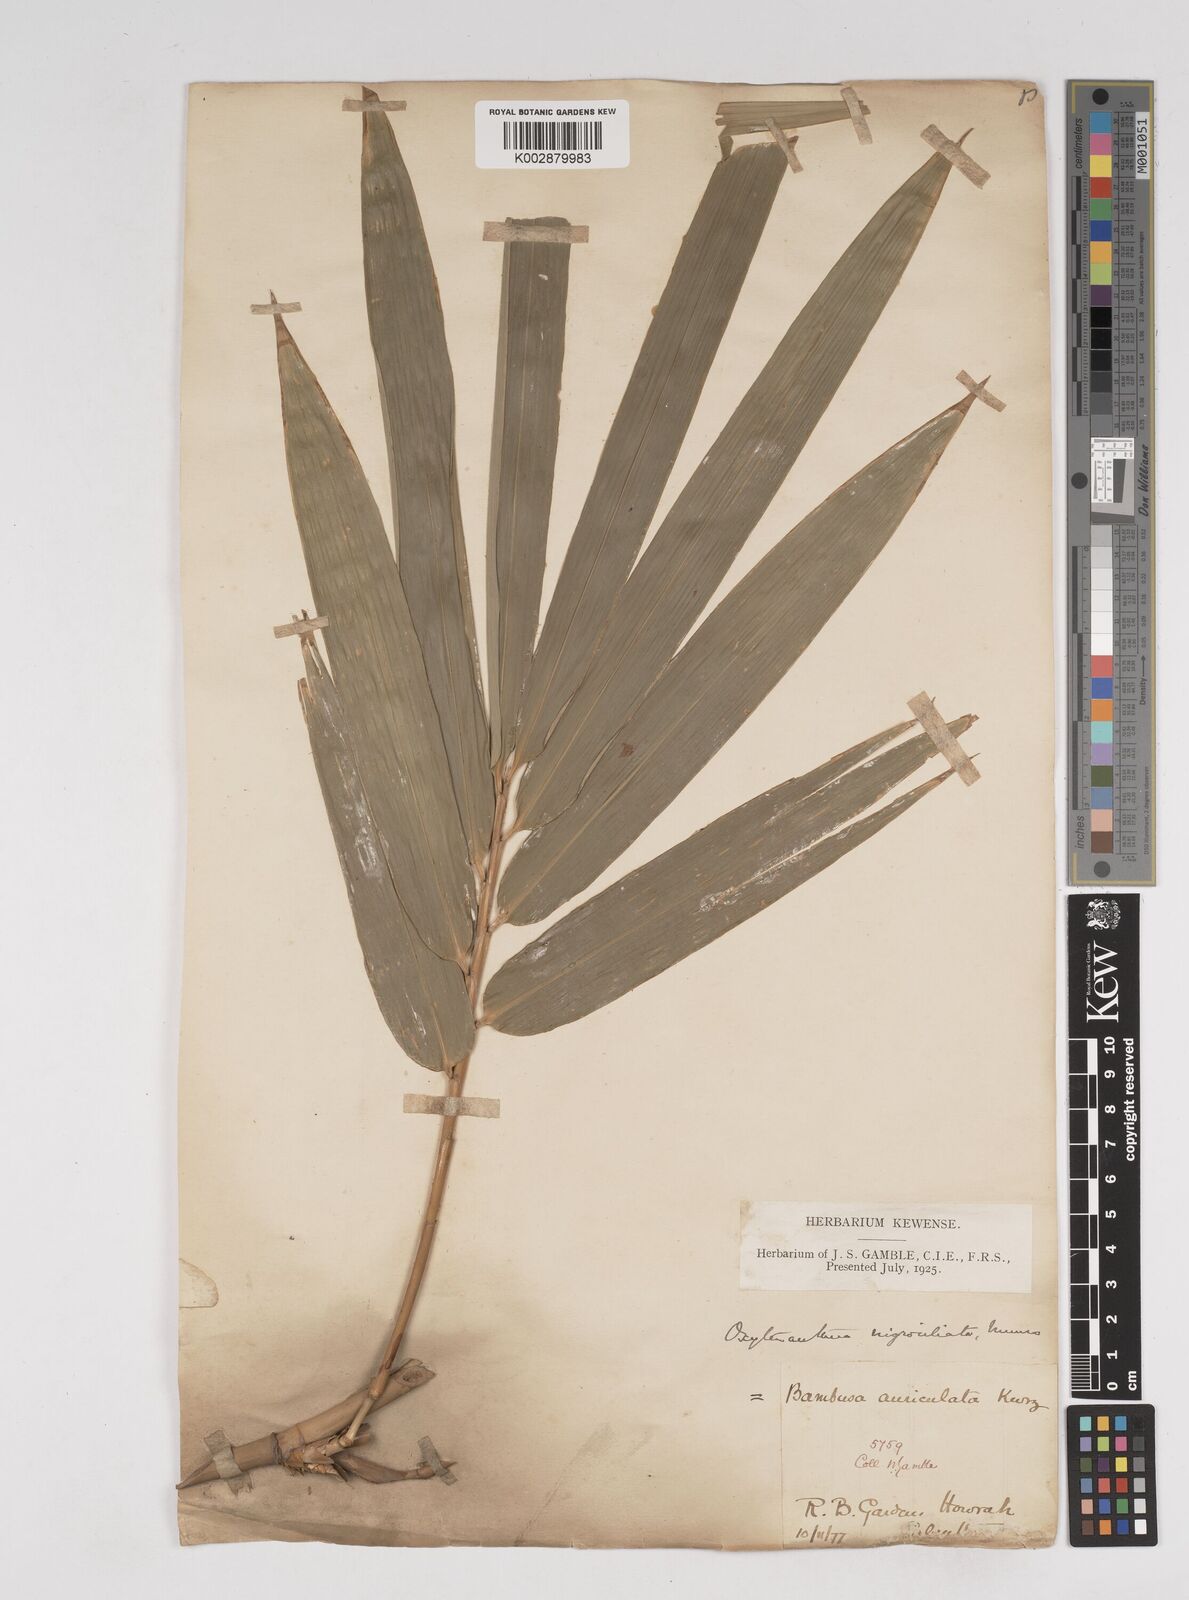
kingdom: Plantae
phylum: Tracheophyta
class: Liliopsida
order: Poales
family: Poaceae
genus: Gigantochloa
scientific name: Gigantochloa nigrociliata
